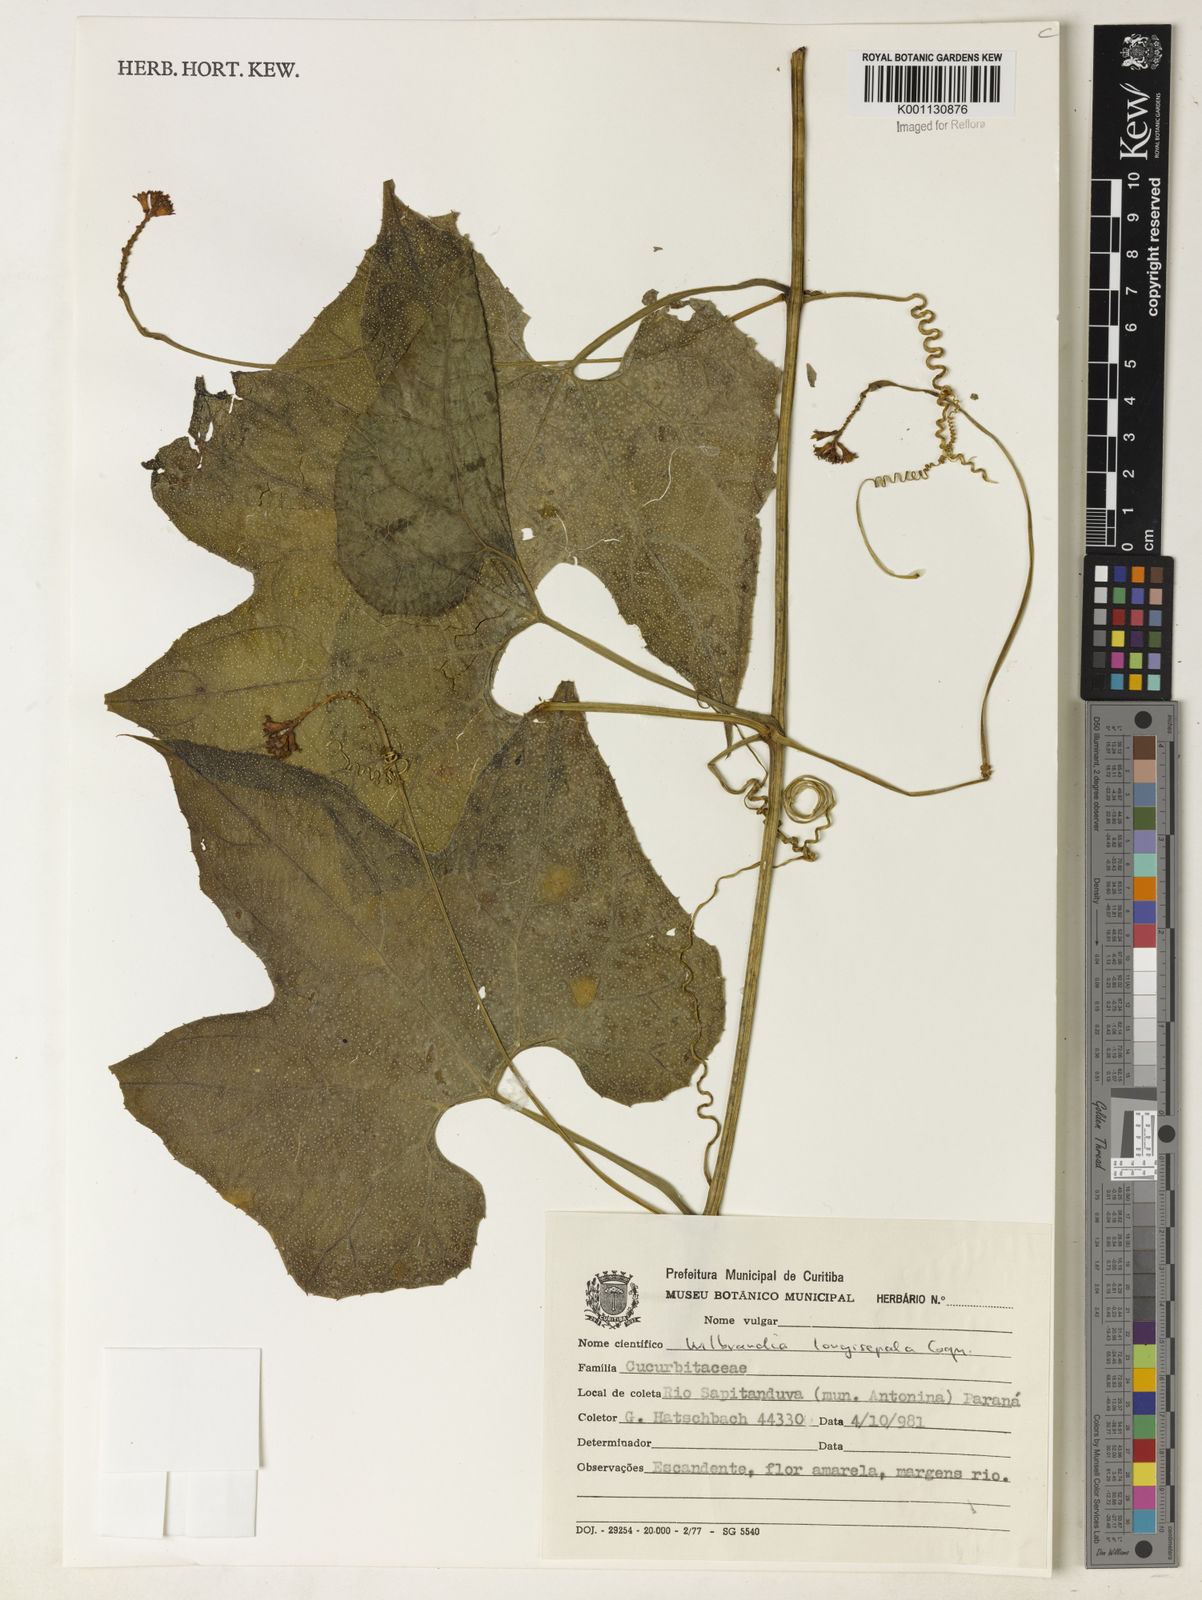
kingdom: Plantae
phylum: Tracheophyta
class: Magnoliopsida
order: Cucurbitales
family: Cucurbitaceae
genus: Wilbrandia
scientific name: Wilbrandia longisepala
